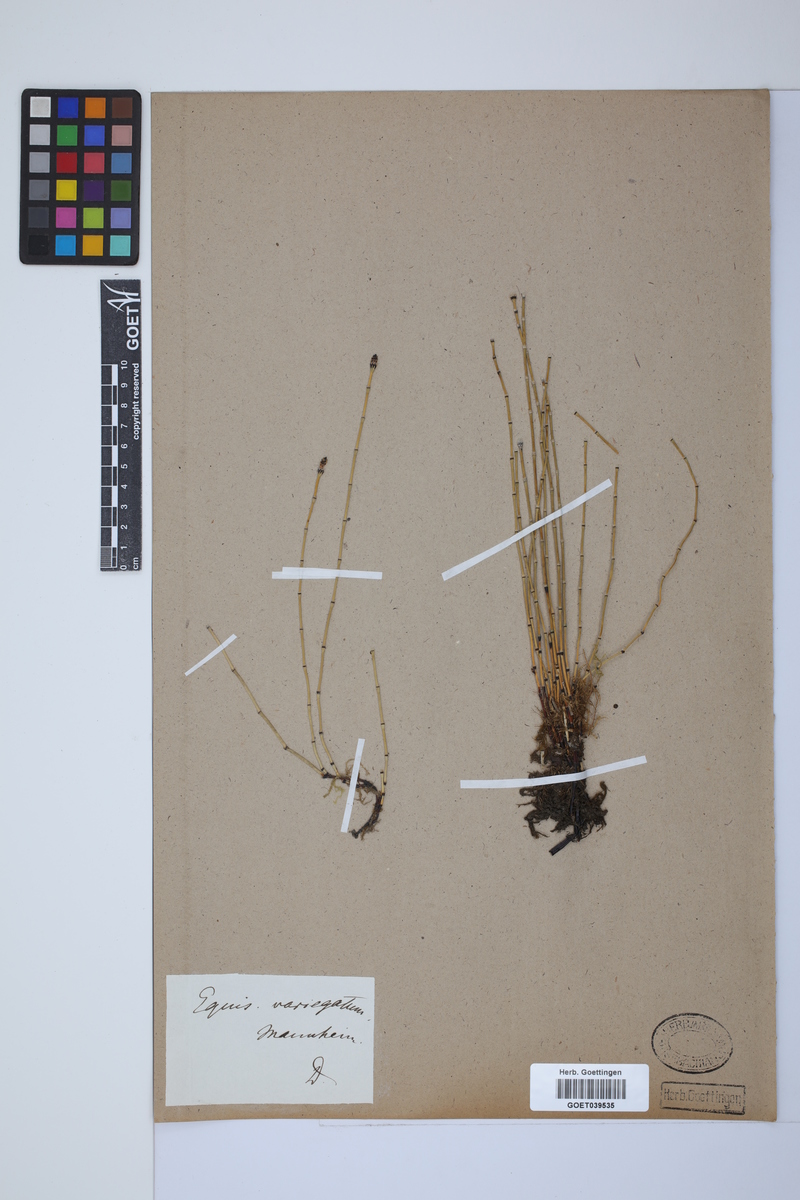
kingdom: Plantae
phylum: Tracheophyta
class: Polypodiopsida
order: Equisetales
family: Equisetaceae
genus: Equisetum
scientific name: Equisetum variegatum
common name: Variegated horsetail
